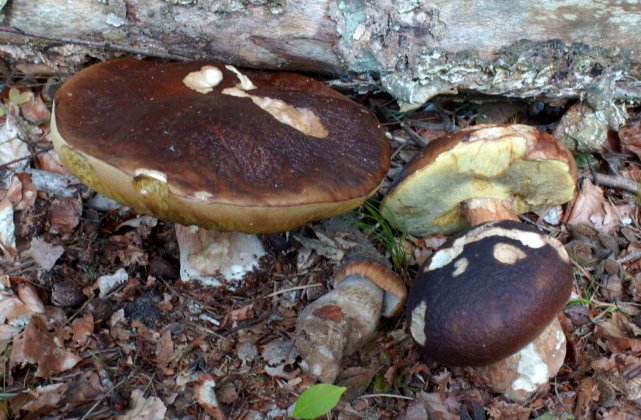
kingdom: Fungi
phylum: Basidiomycota
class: Agaricomycetes
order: Boletales
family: Boletaceae
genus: Boletus
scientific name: Boletus edulis
